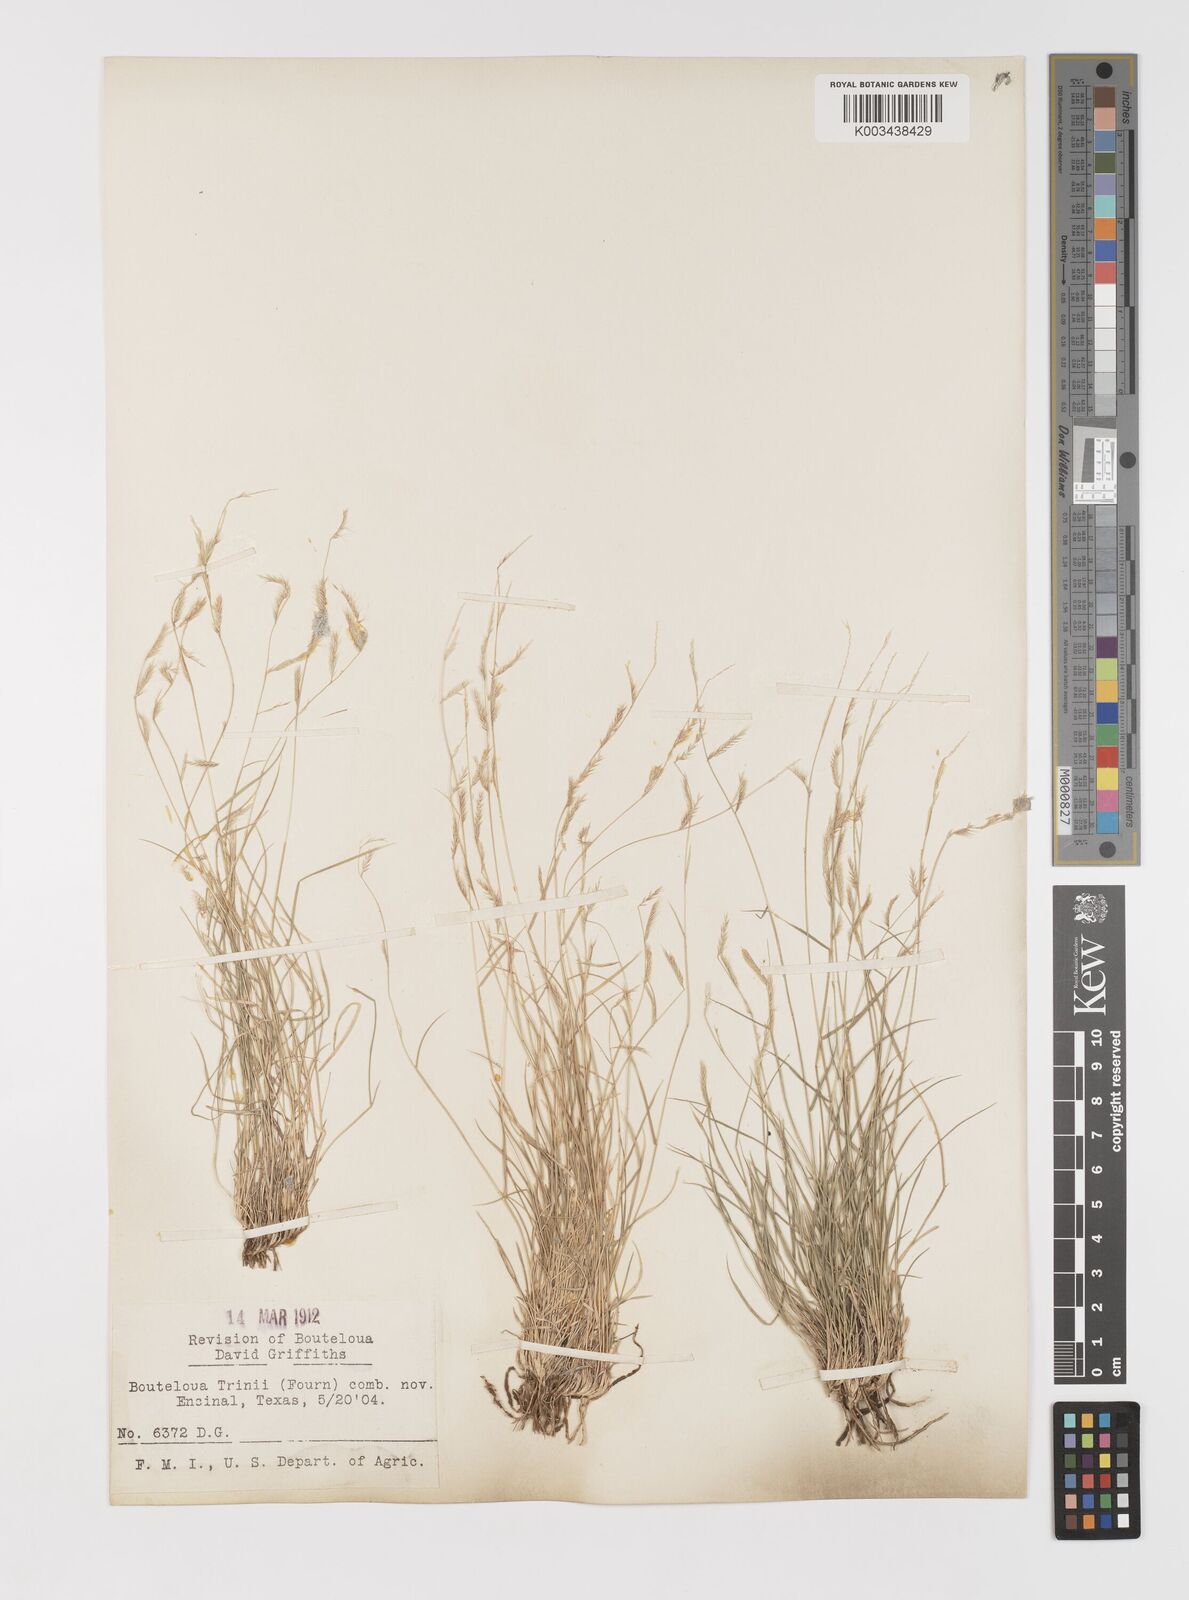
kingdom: Plantae
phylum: Tracheophyta
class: Liliopsida
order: Poales
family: Poaceae
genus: Bouteloua
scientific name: Bouteloua trifida
